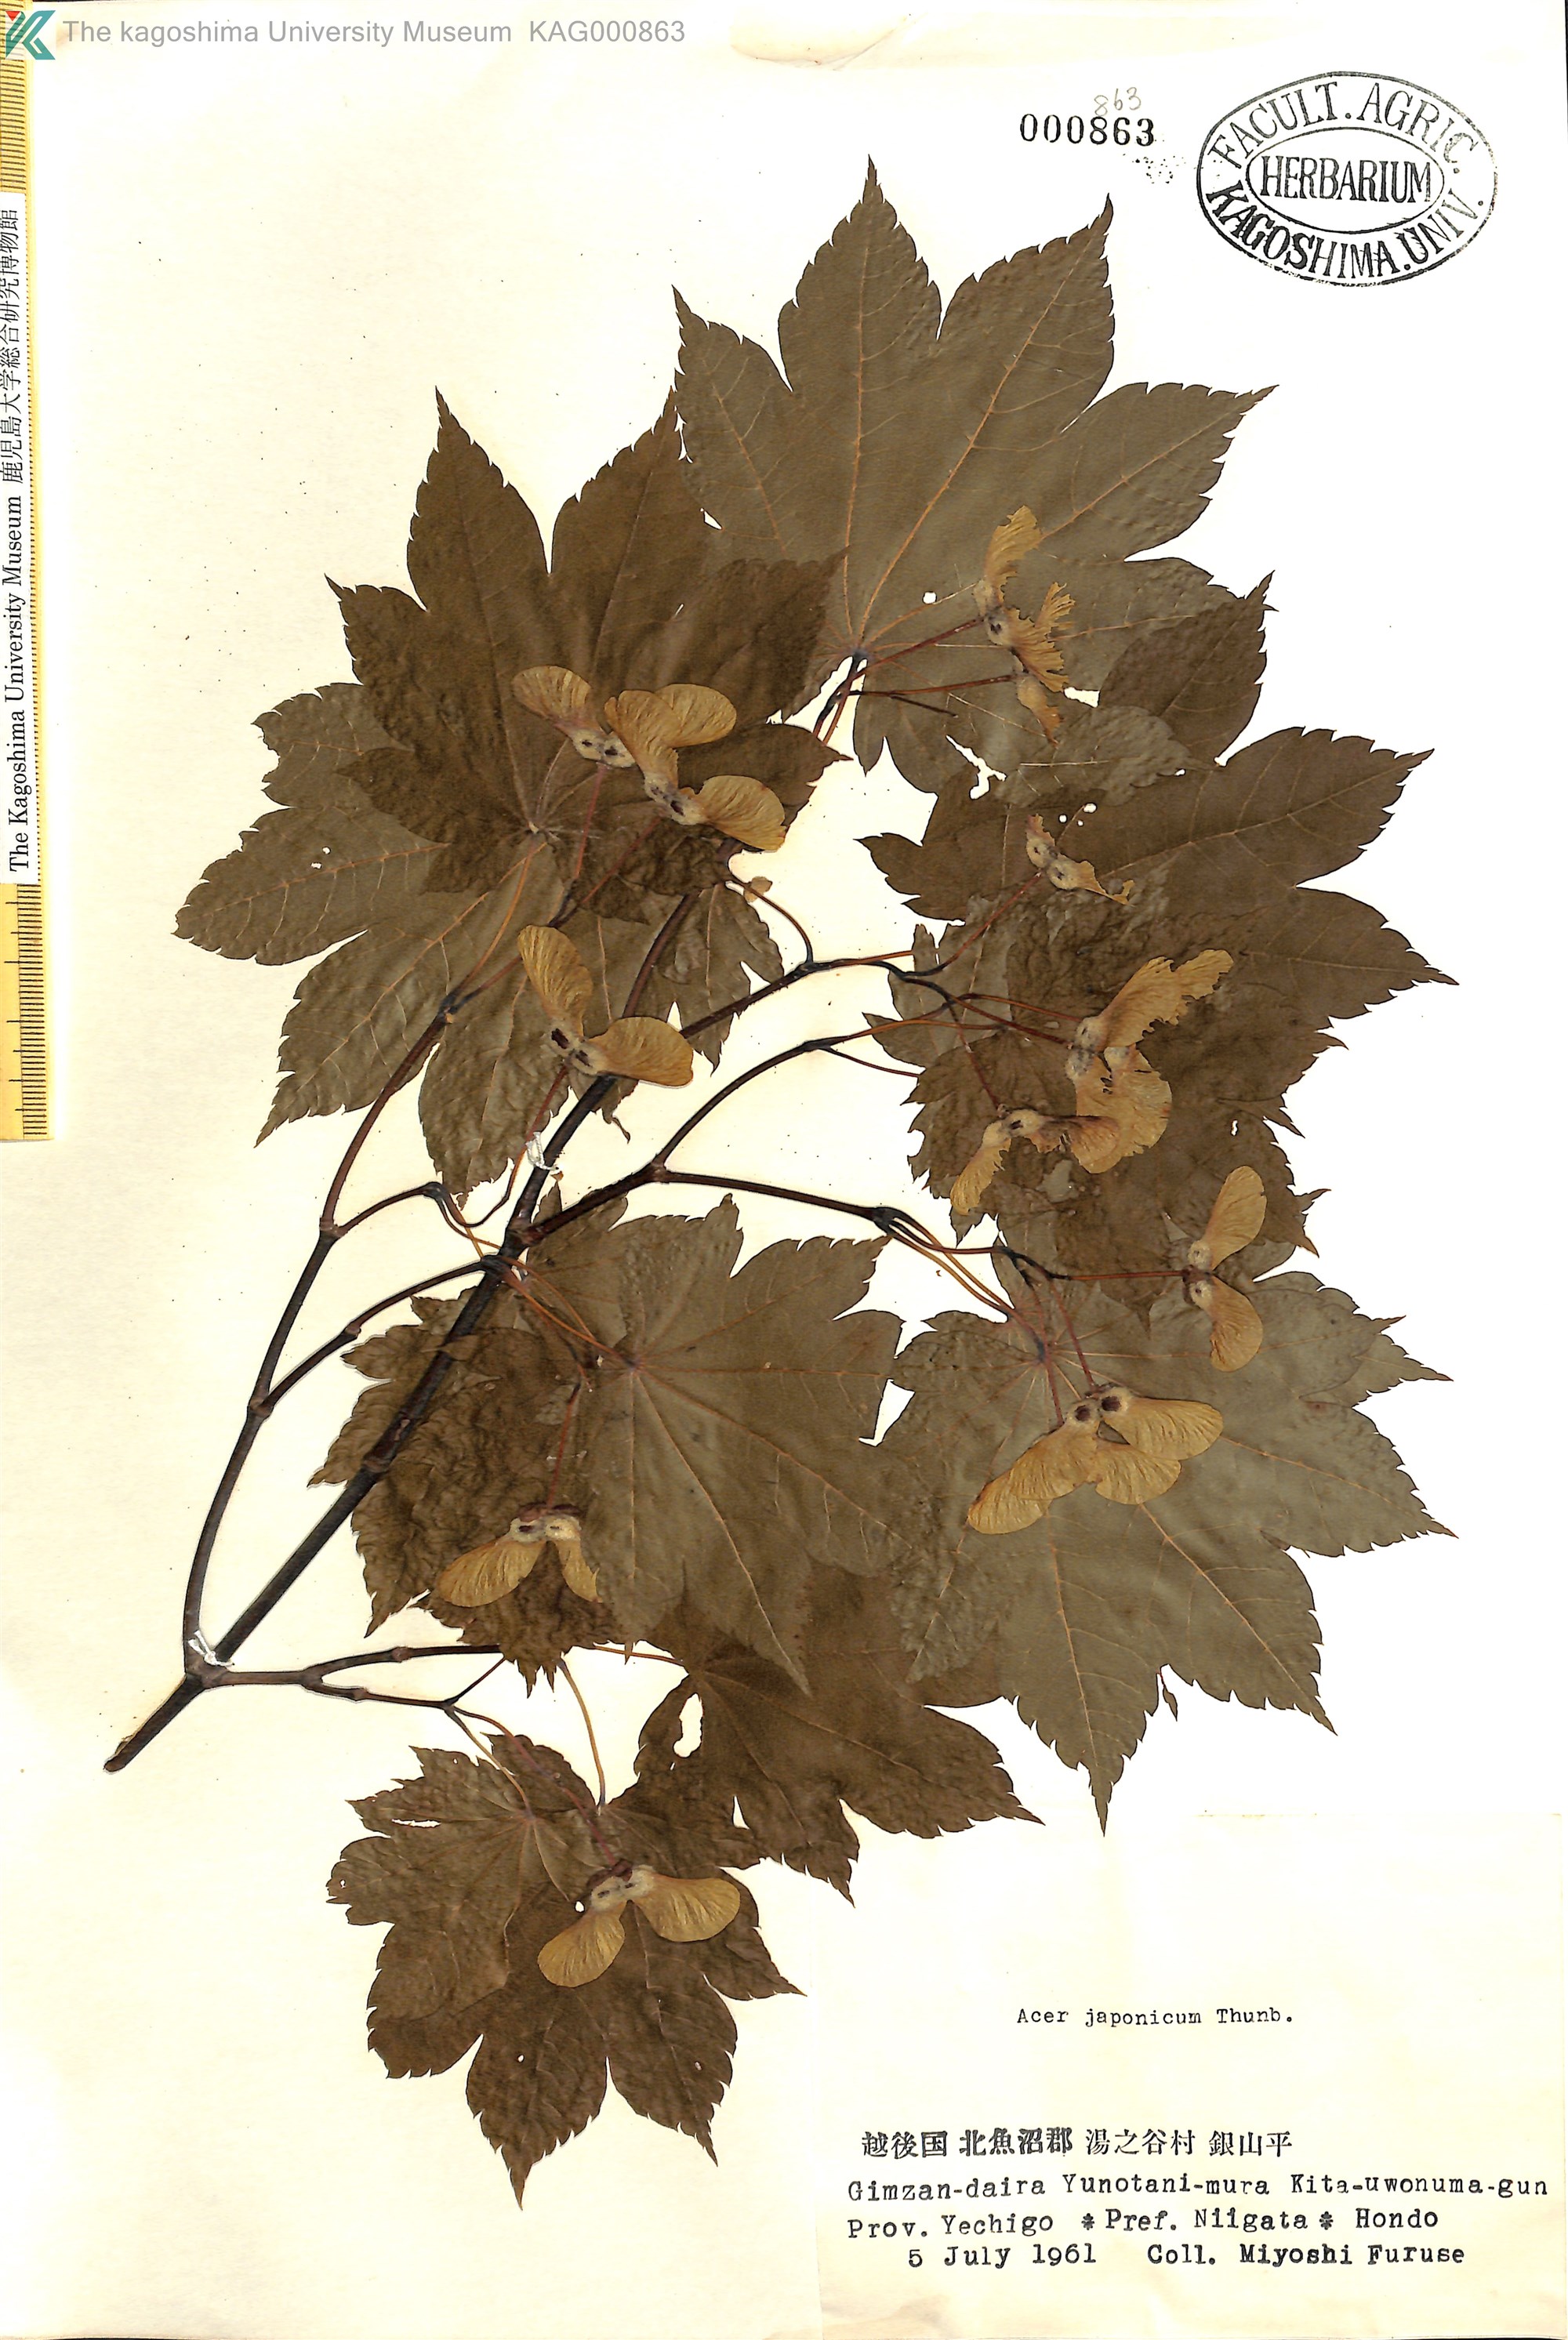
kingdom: Plantae
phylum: Tracheophyta
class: Magnoliopsida
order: Sapindales
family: Sapindaceae
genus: Acer
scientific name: Acer japonicum
